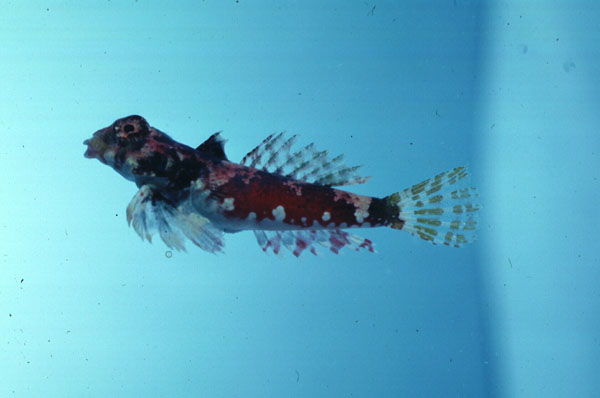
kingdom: Animalia
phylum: Chordata
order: Perciformes
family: Callionymidae
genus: Synchiropus
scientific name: Synchiropus marmoratus
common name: Marbled dragonet
